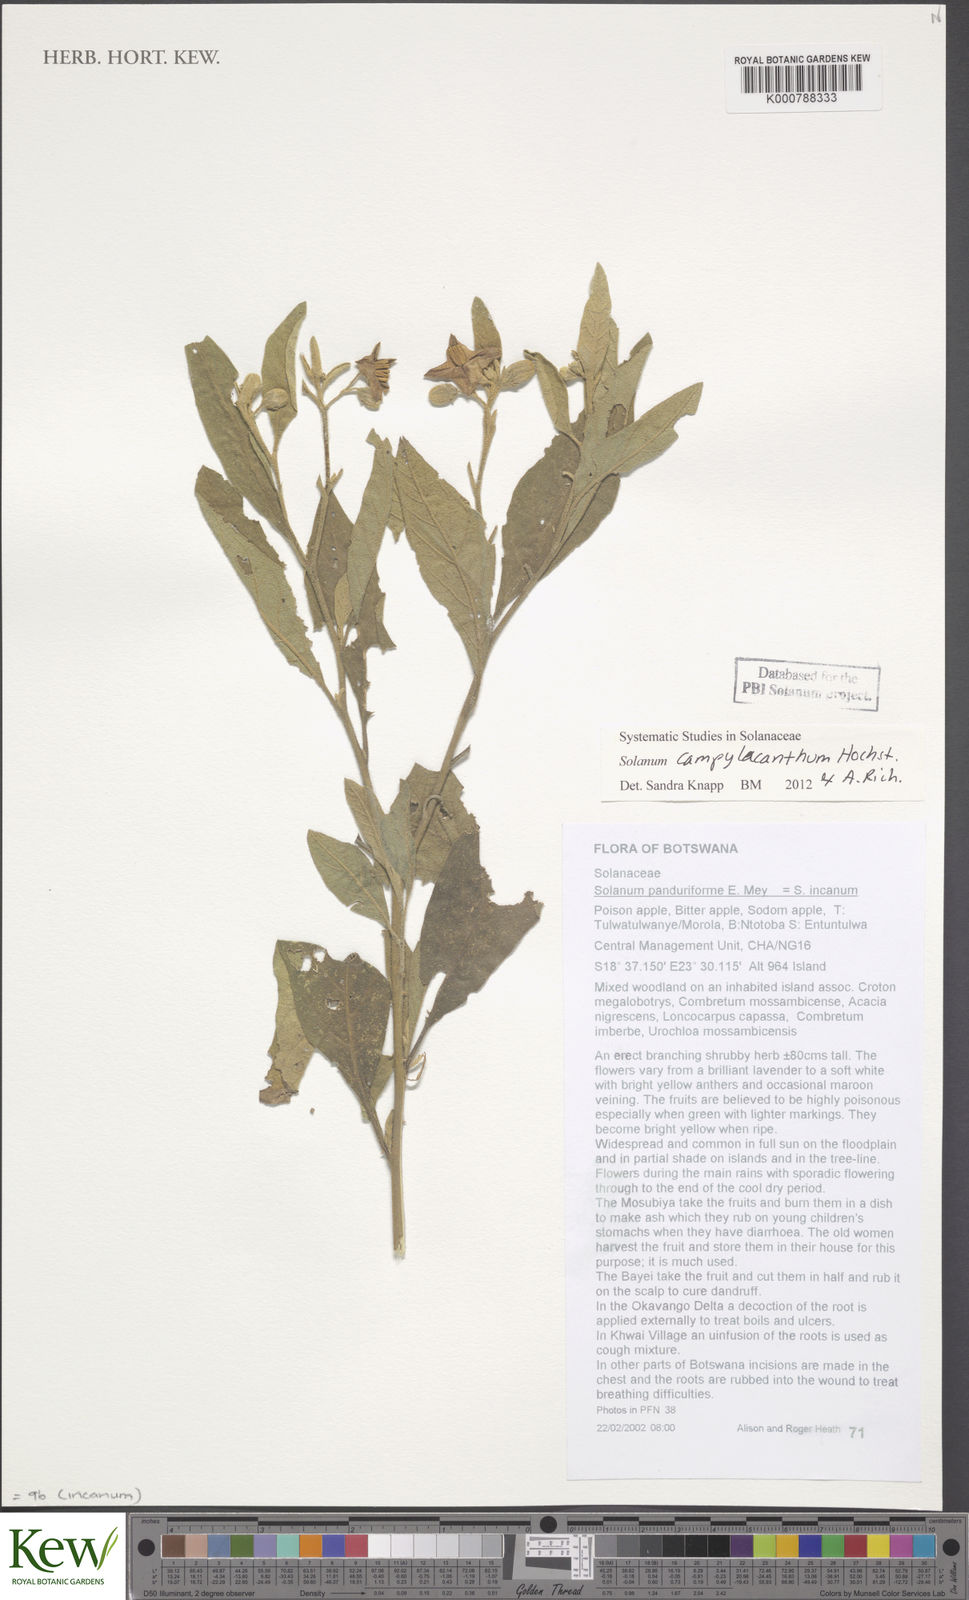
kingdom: Plantae
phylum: Tracheophyta
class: Magnoliopsida
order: Solanales
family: Solanaceae
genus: Solanum
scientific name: Solanum campylacanthum
